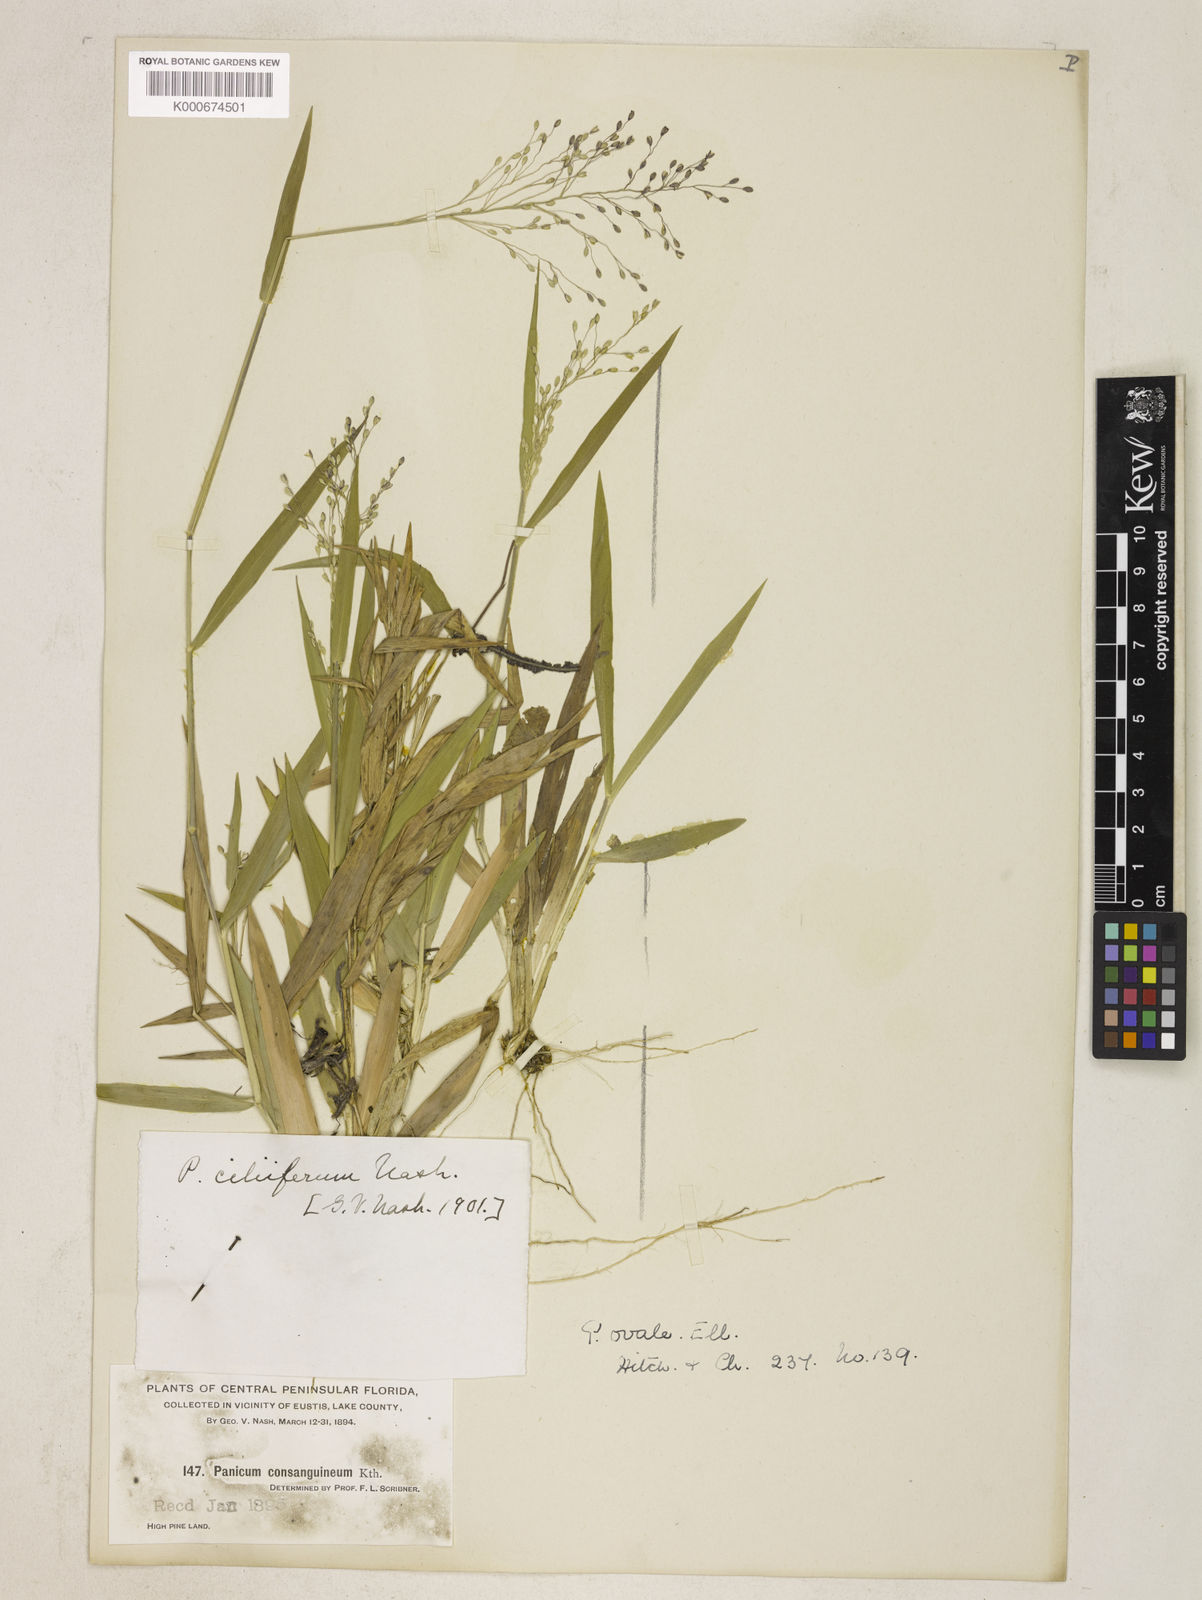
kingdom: Plantae
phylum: Tracheophyta
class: Liliopsida
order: Poales
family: Poaceae
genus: Dichanthelium
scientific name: Dichanthelium ovale
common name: Stiff-leaved panicgrass
